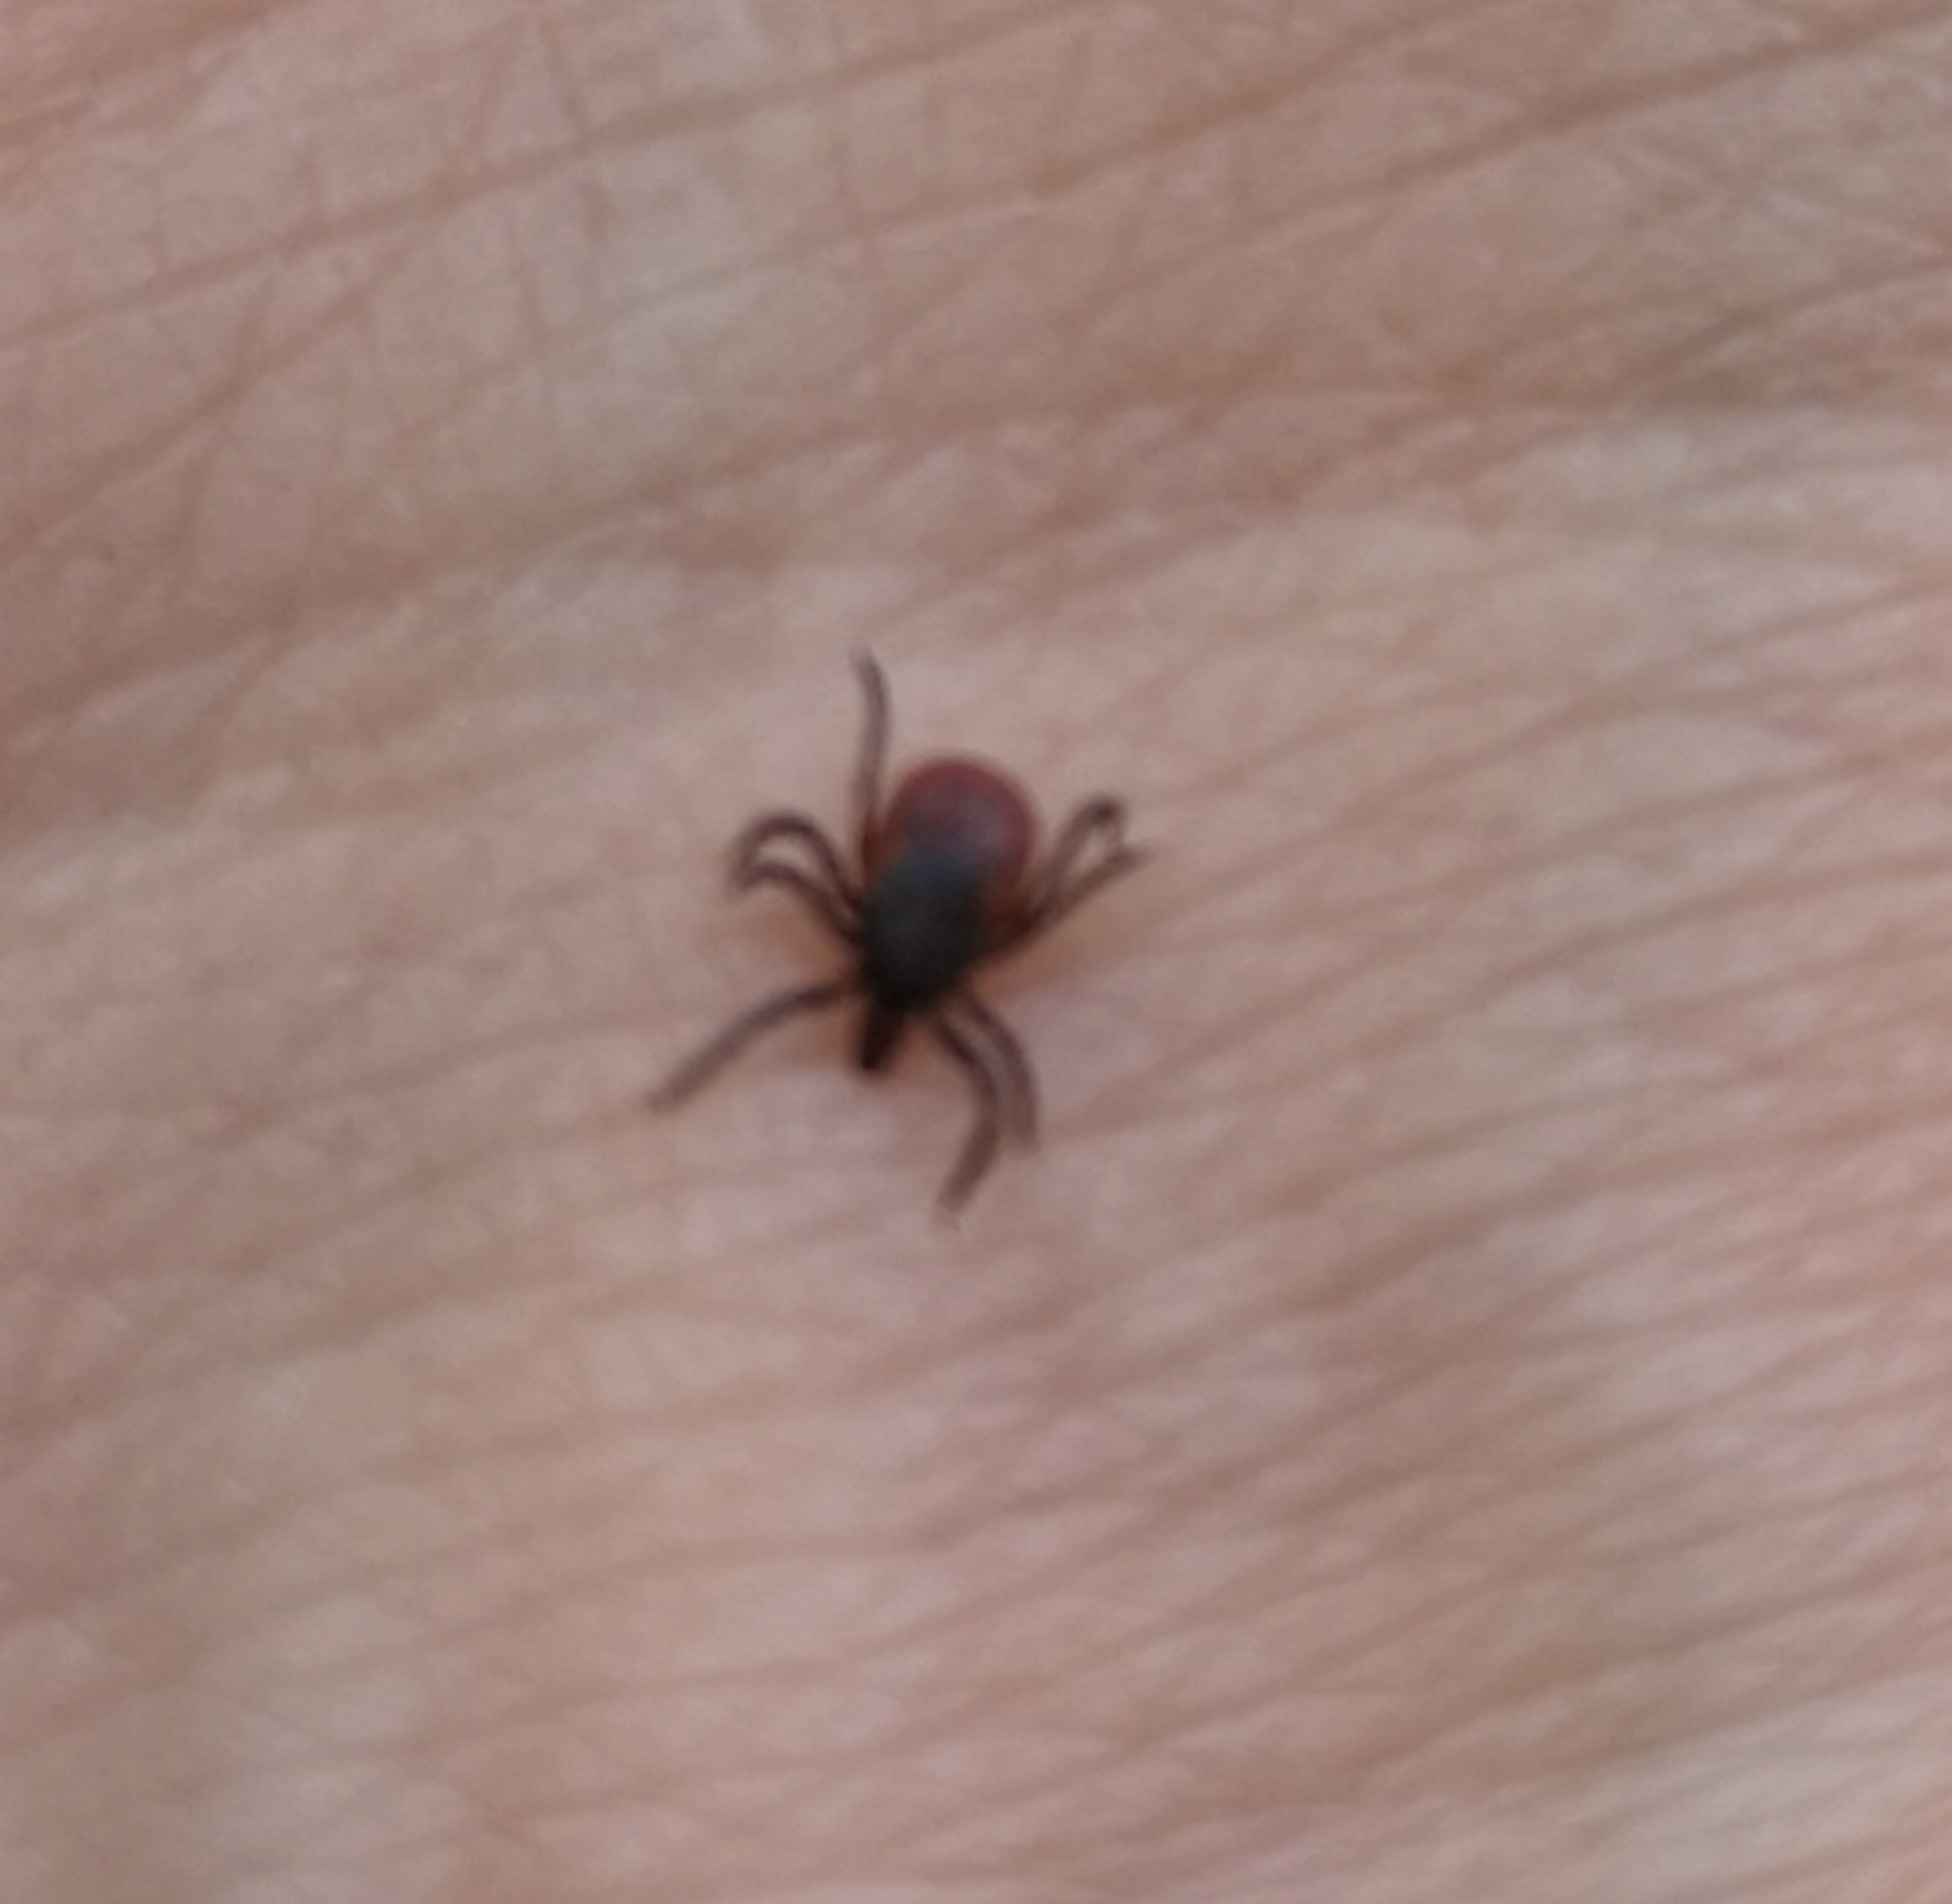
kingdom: Animalia
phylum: Arthropoda
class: Arachnida
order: Ixodida
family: Ixodidae
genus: Ixodes
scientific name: Ixodes ricinus
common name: Skovflåt
